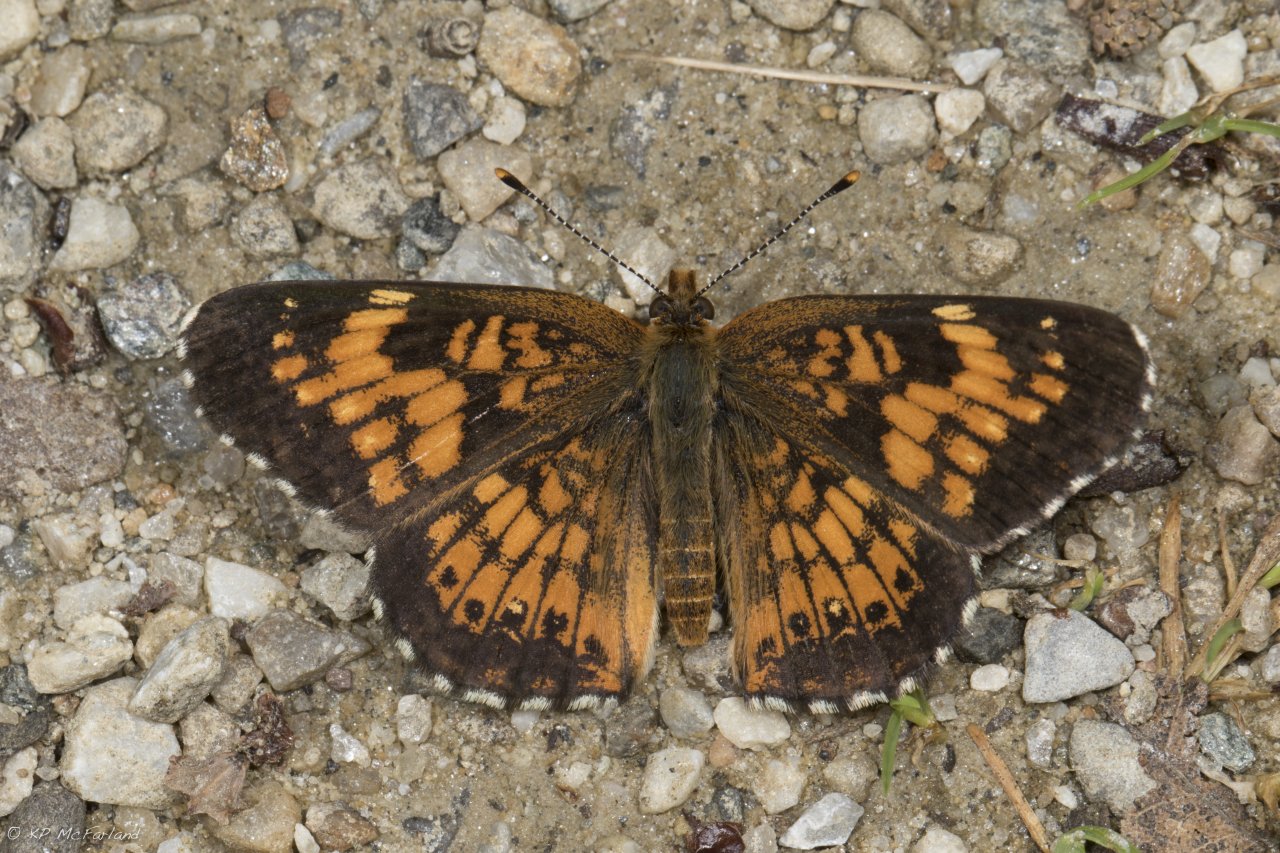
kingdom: Animalia
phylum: Arthropoda
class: Insecta
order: Lepidoptera
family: Nymphalidae
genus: Chlosyne
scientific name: Chlosyne harrisii
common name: Harris's Checkerspot
